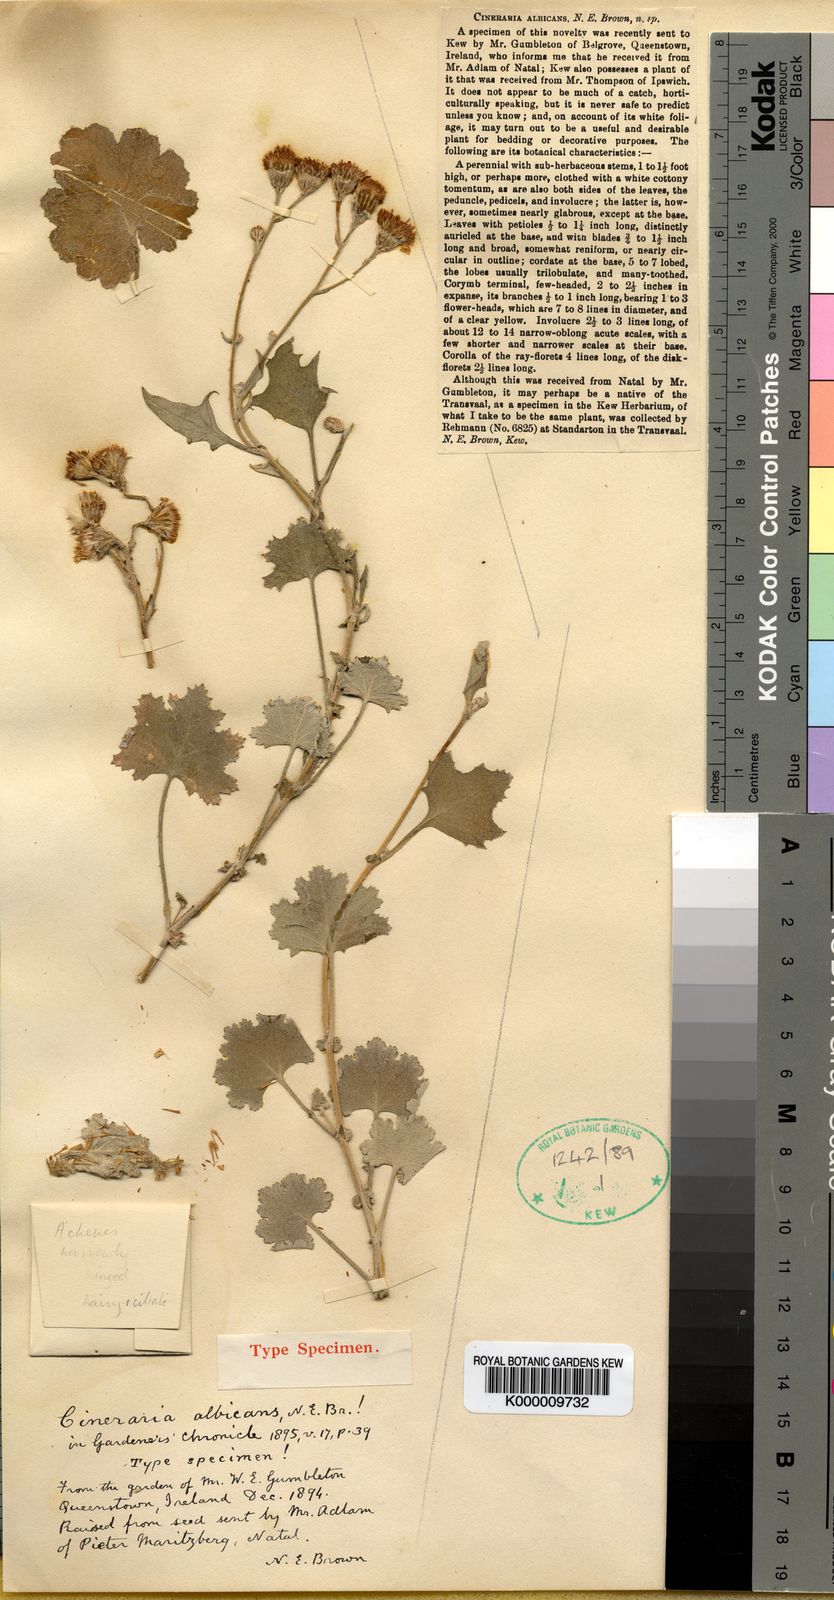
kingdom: Plantae
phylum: Tracheophyta
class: Magnoliopsida
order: Asterales
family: Asteraceae
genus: Cineraria
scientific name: Cineraria albicans
